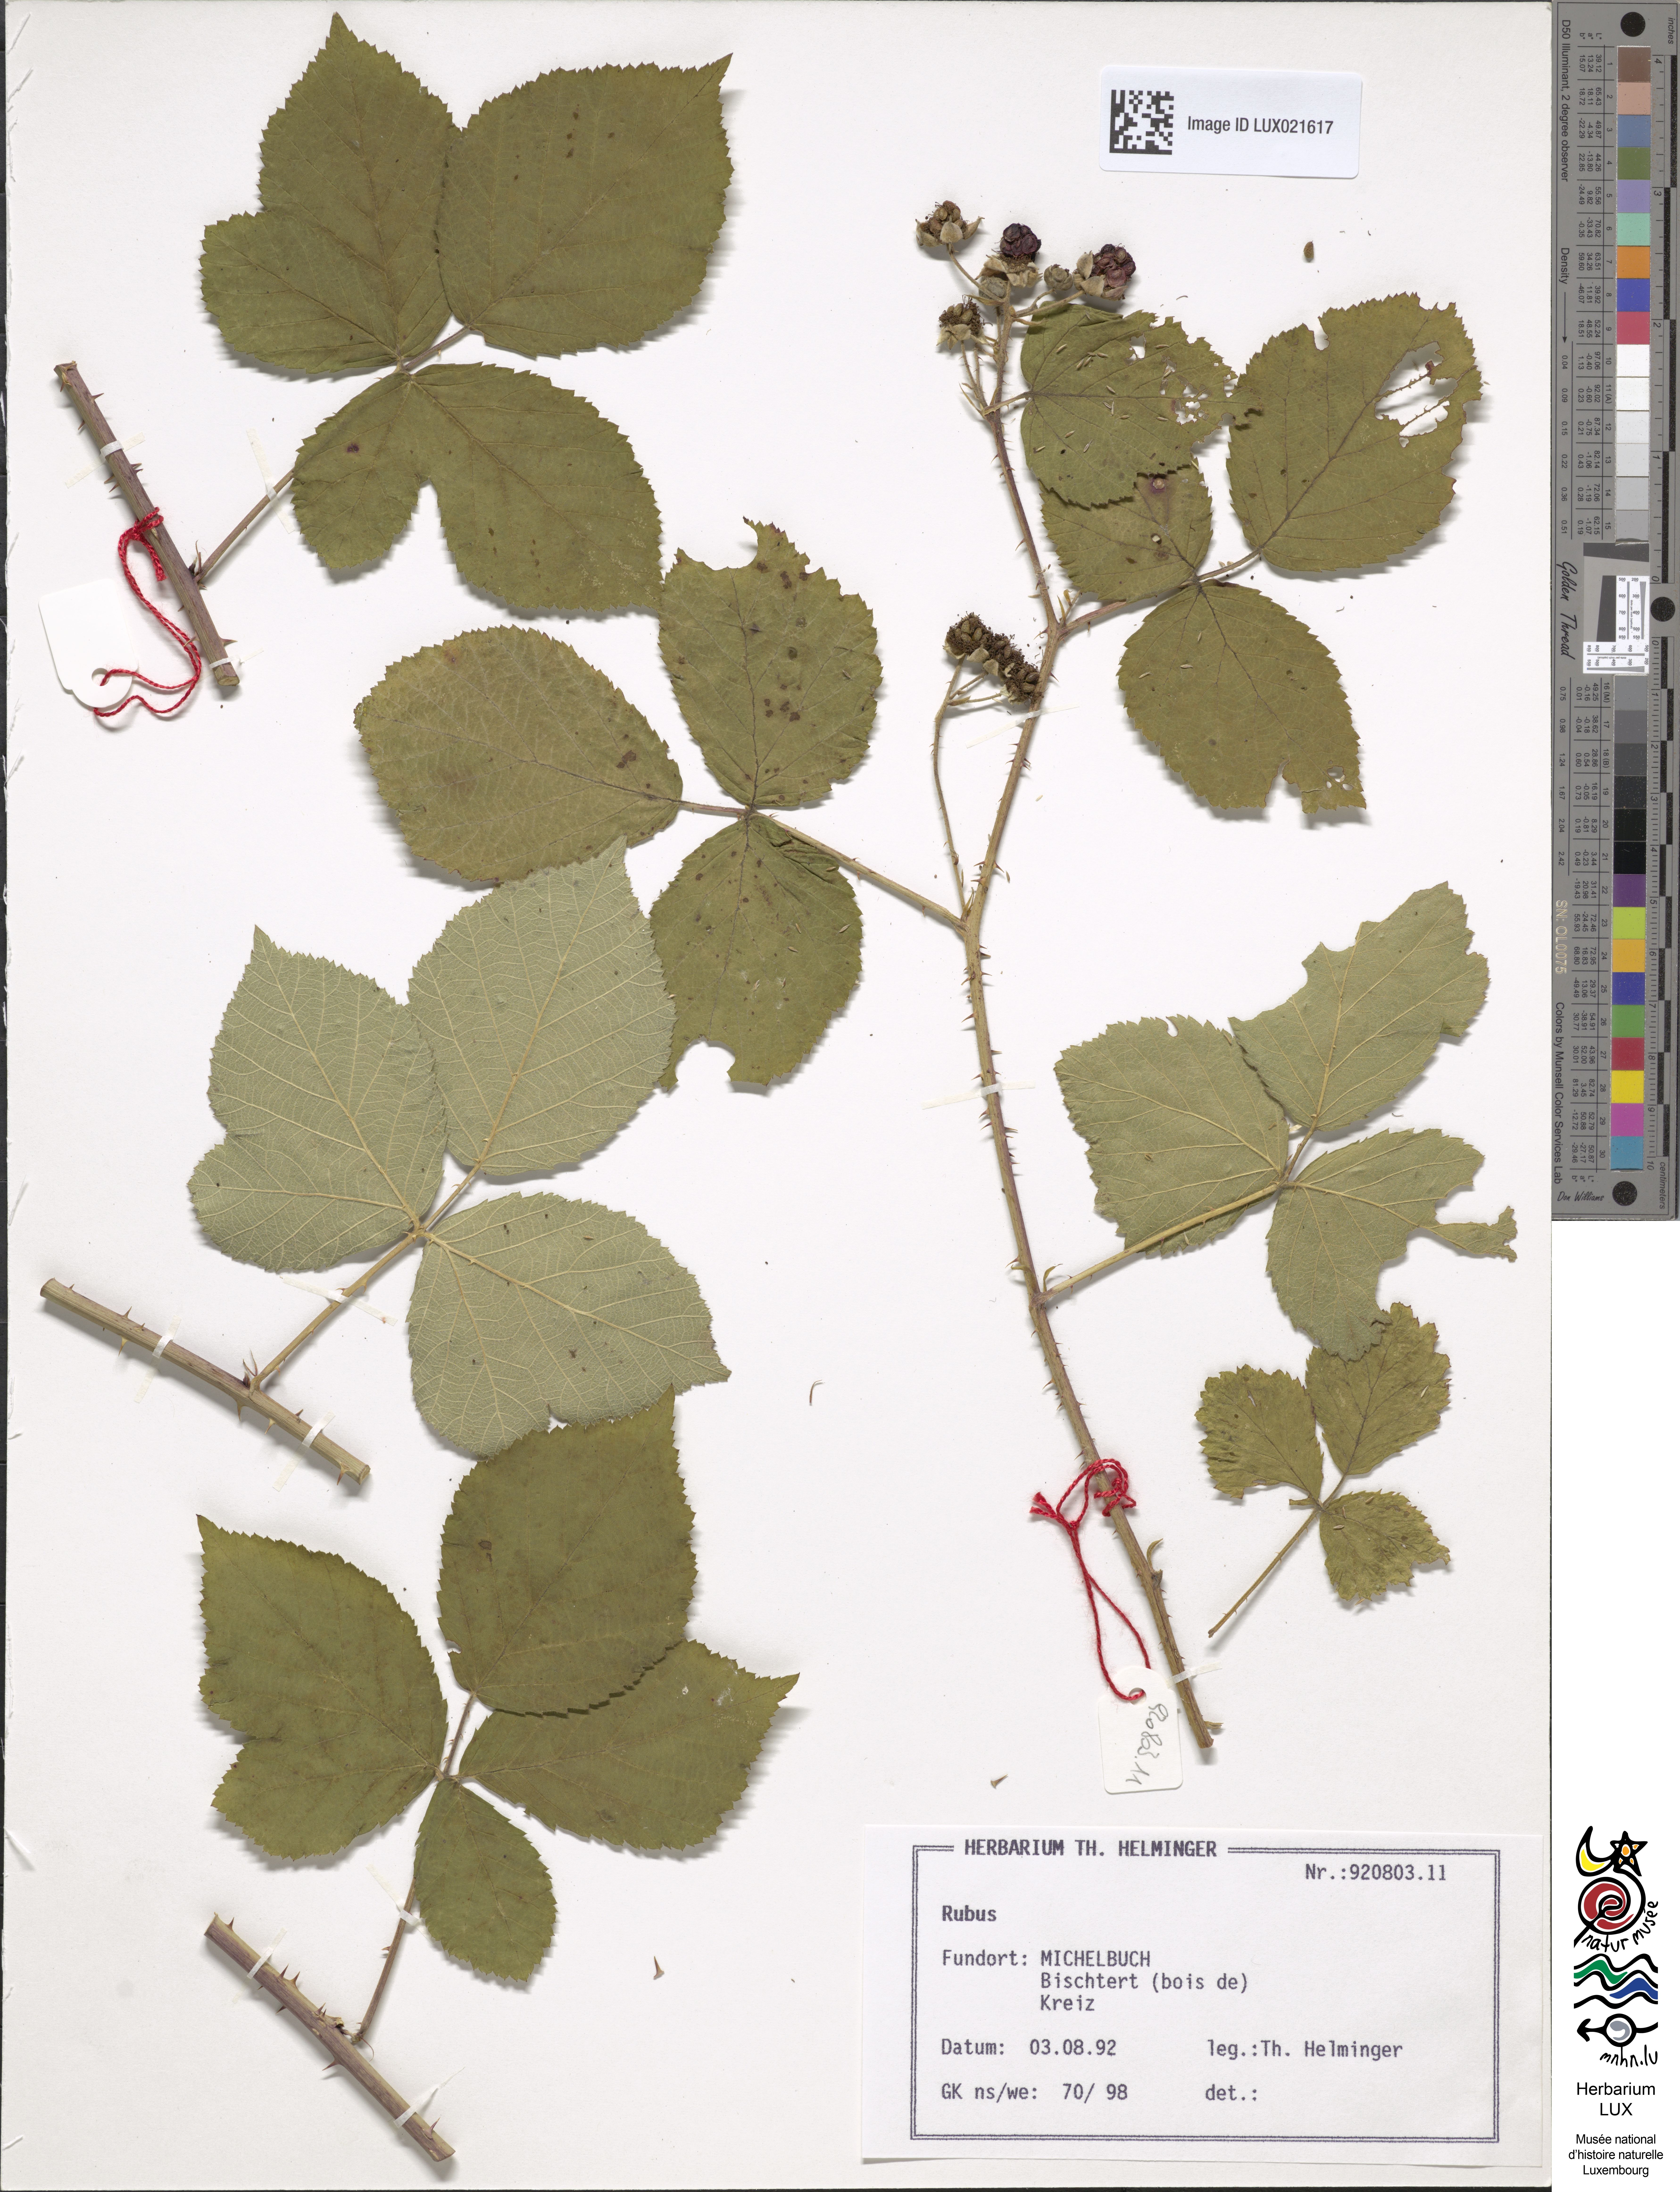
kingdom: Plantae
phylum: Tracheophyta
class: Magnoliopsida
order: Rosales
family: Rosaceae
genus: Rubus
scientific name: Rubus
